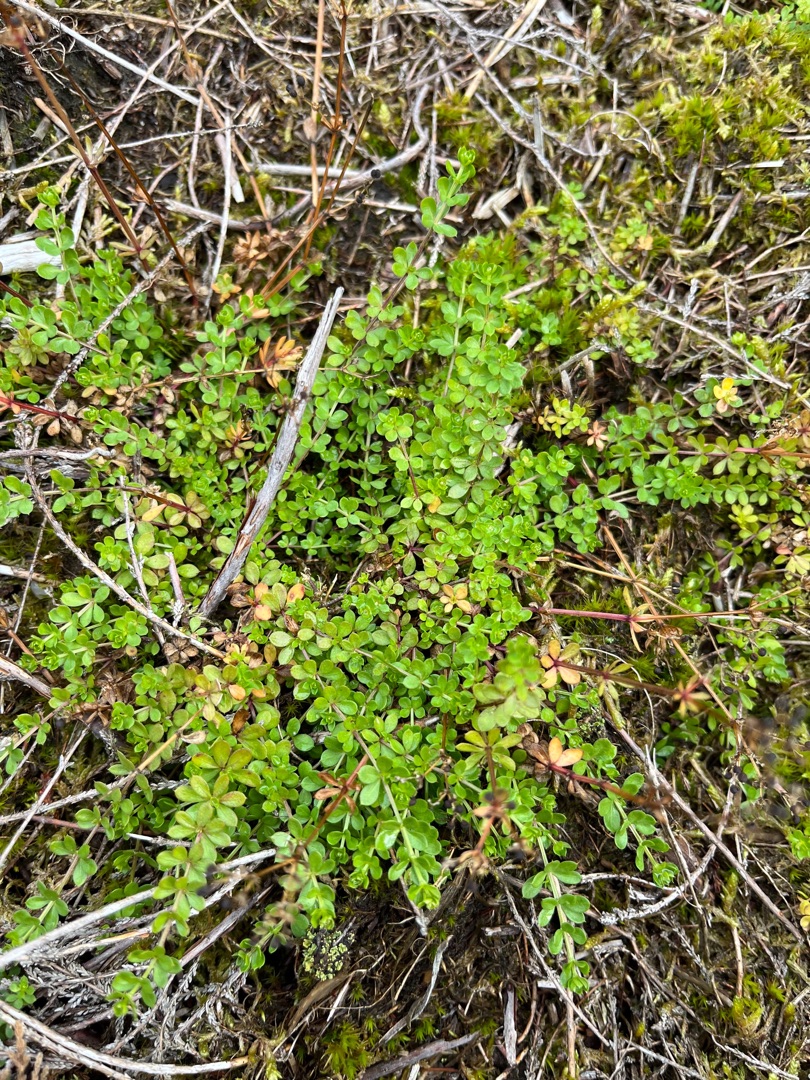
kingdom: Plantae
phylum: Tracheophyta
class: Magnoliopsida
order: Gentianales
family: Rubiaceae
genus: Galium
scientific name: Galium saxatile
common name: Lyng-snerre
